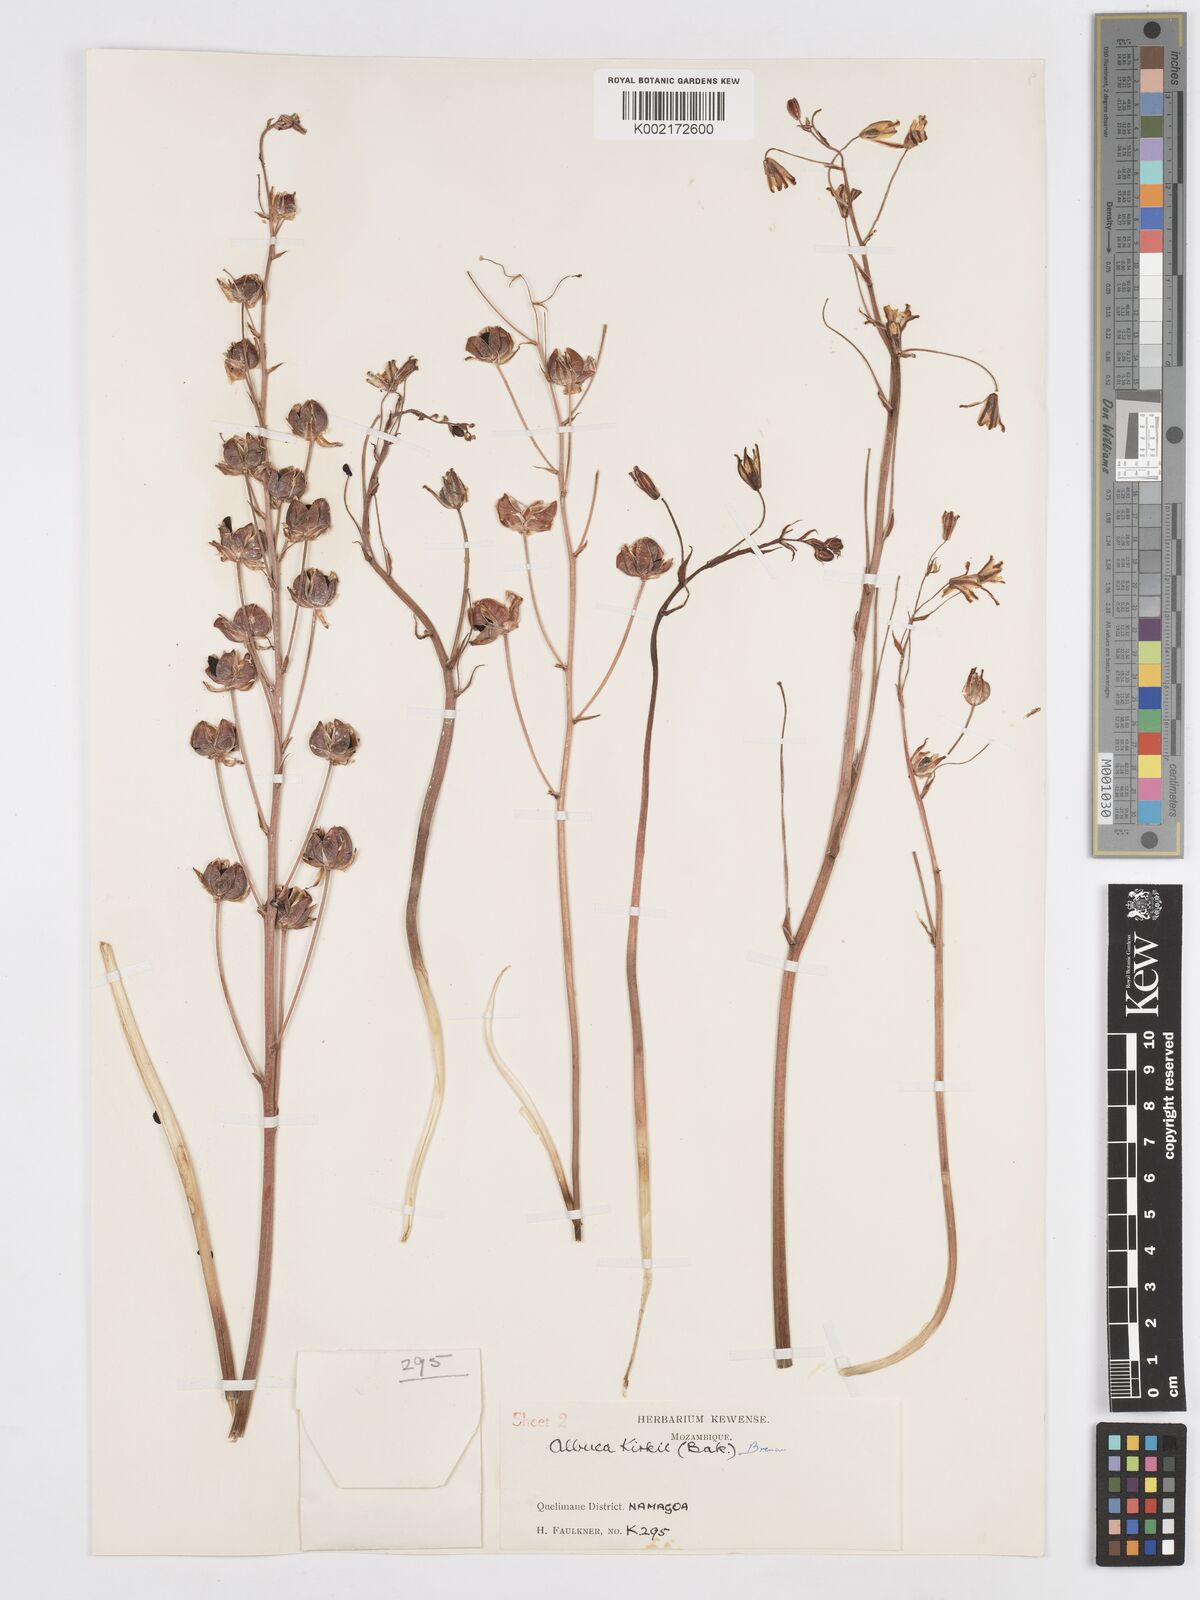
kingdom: Plantae
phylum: Tracheophyta
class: Liliopsida
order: Asparagales
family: Asparagaceae
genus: Albuca
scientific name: Albuca kirkii
